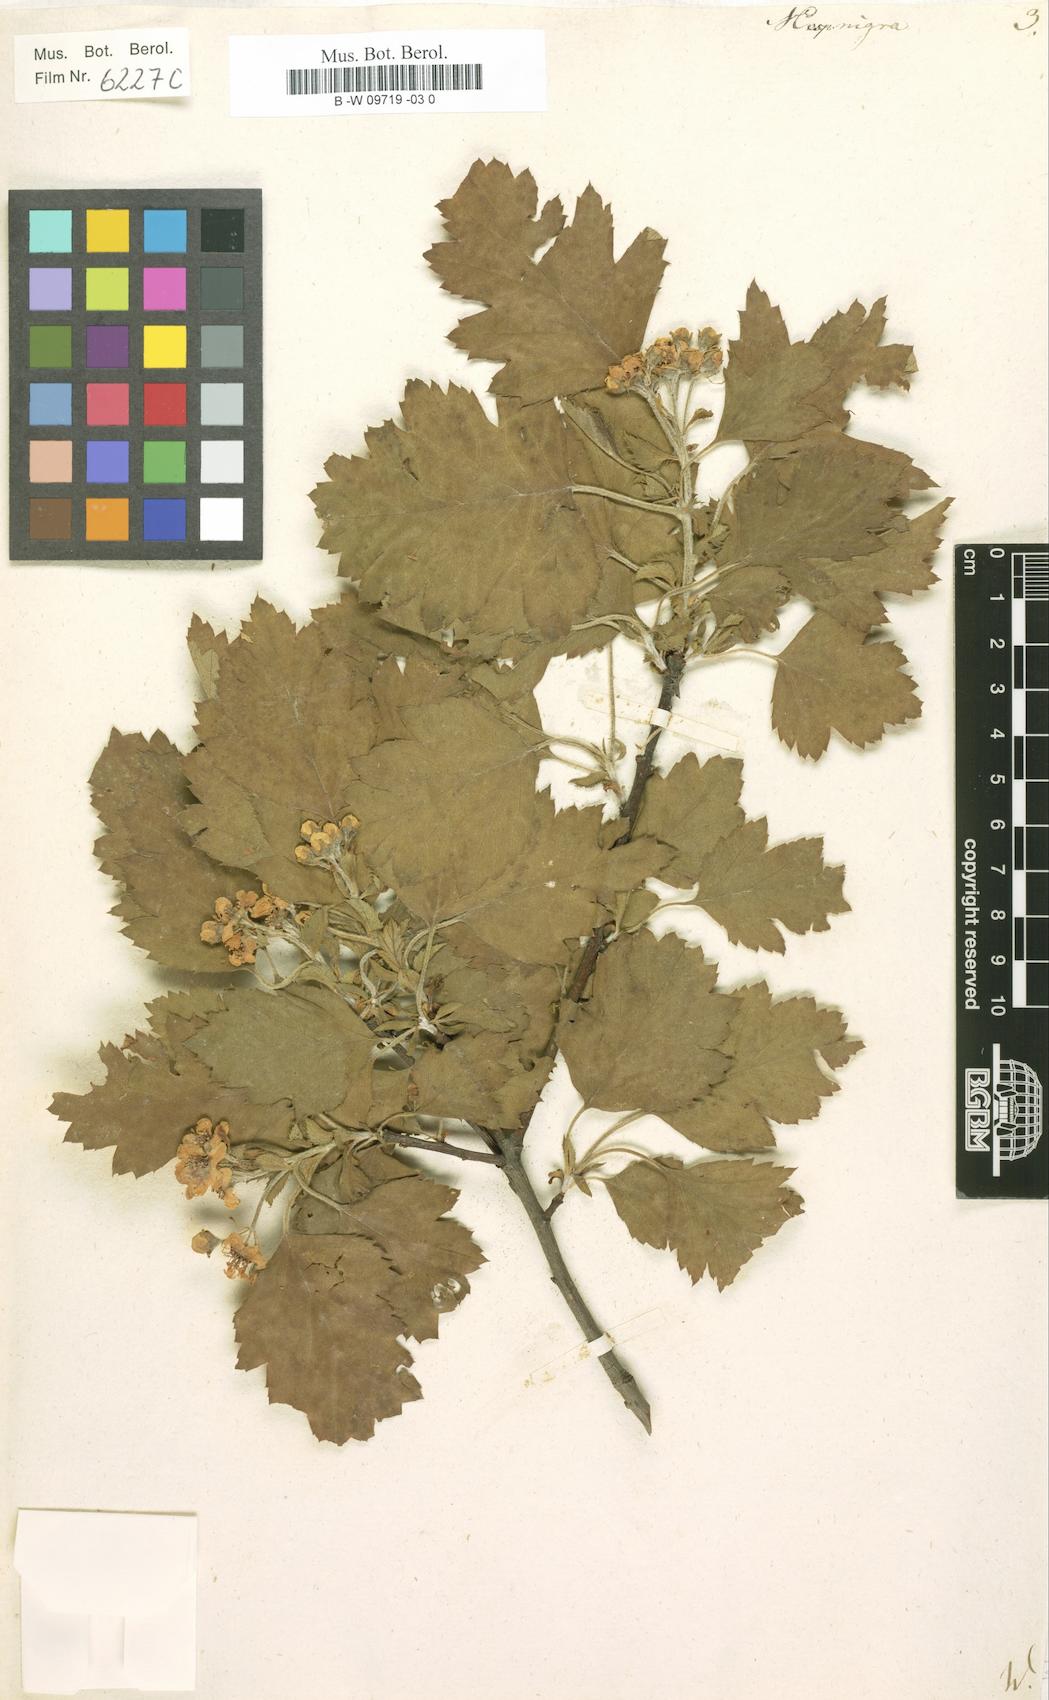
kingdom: Plantae
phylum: Tracheophyta
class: Magnoliopsida
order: Rosales
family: Rosaceae
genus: Crataegus
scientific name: Crataegus nigra
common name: Hungarian thorn
